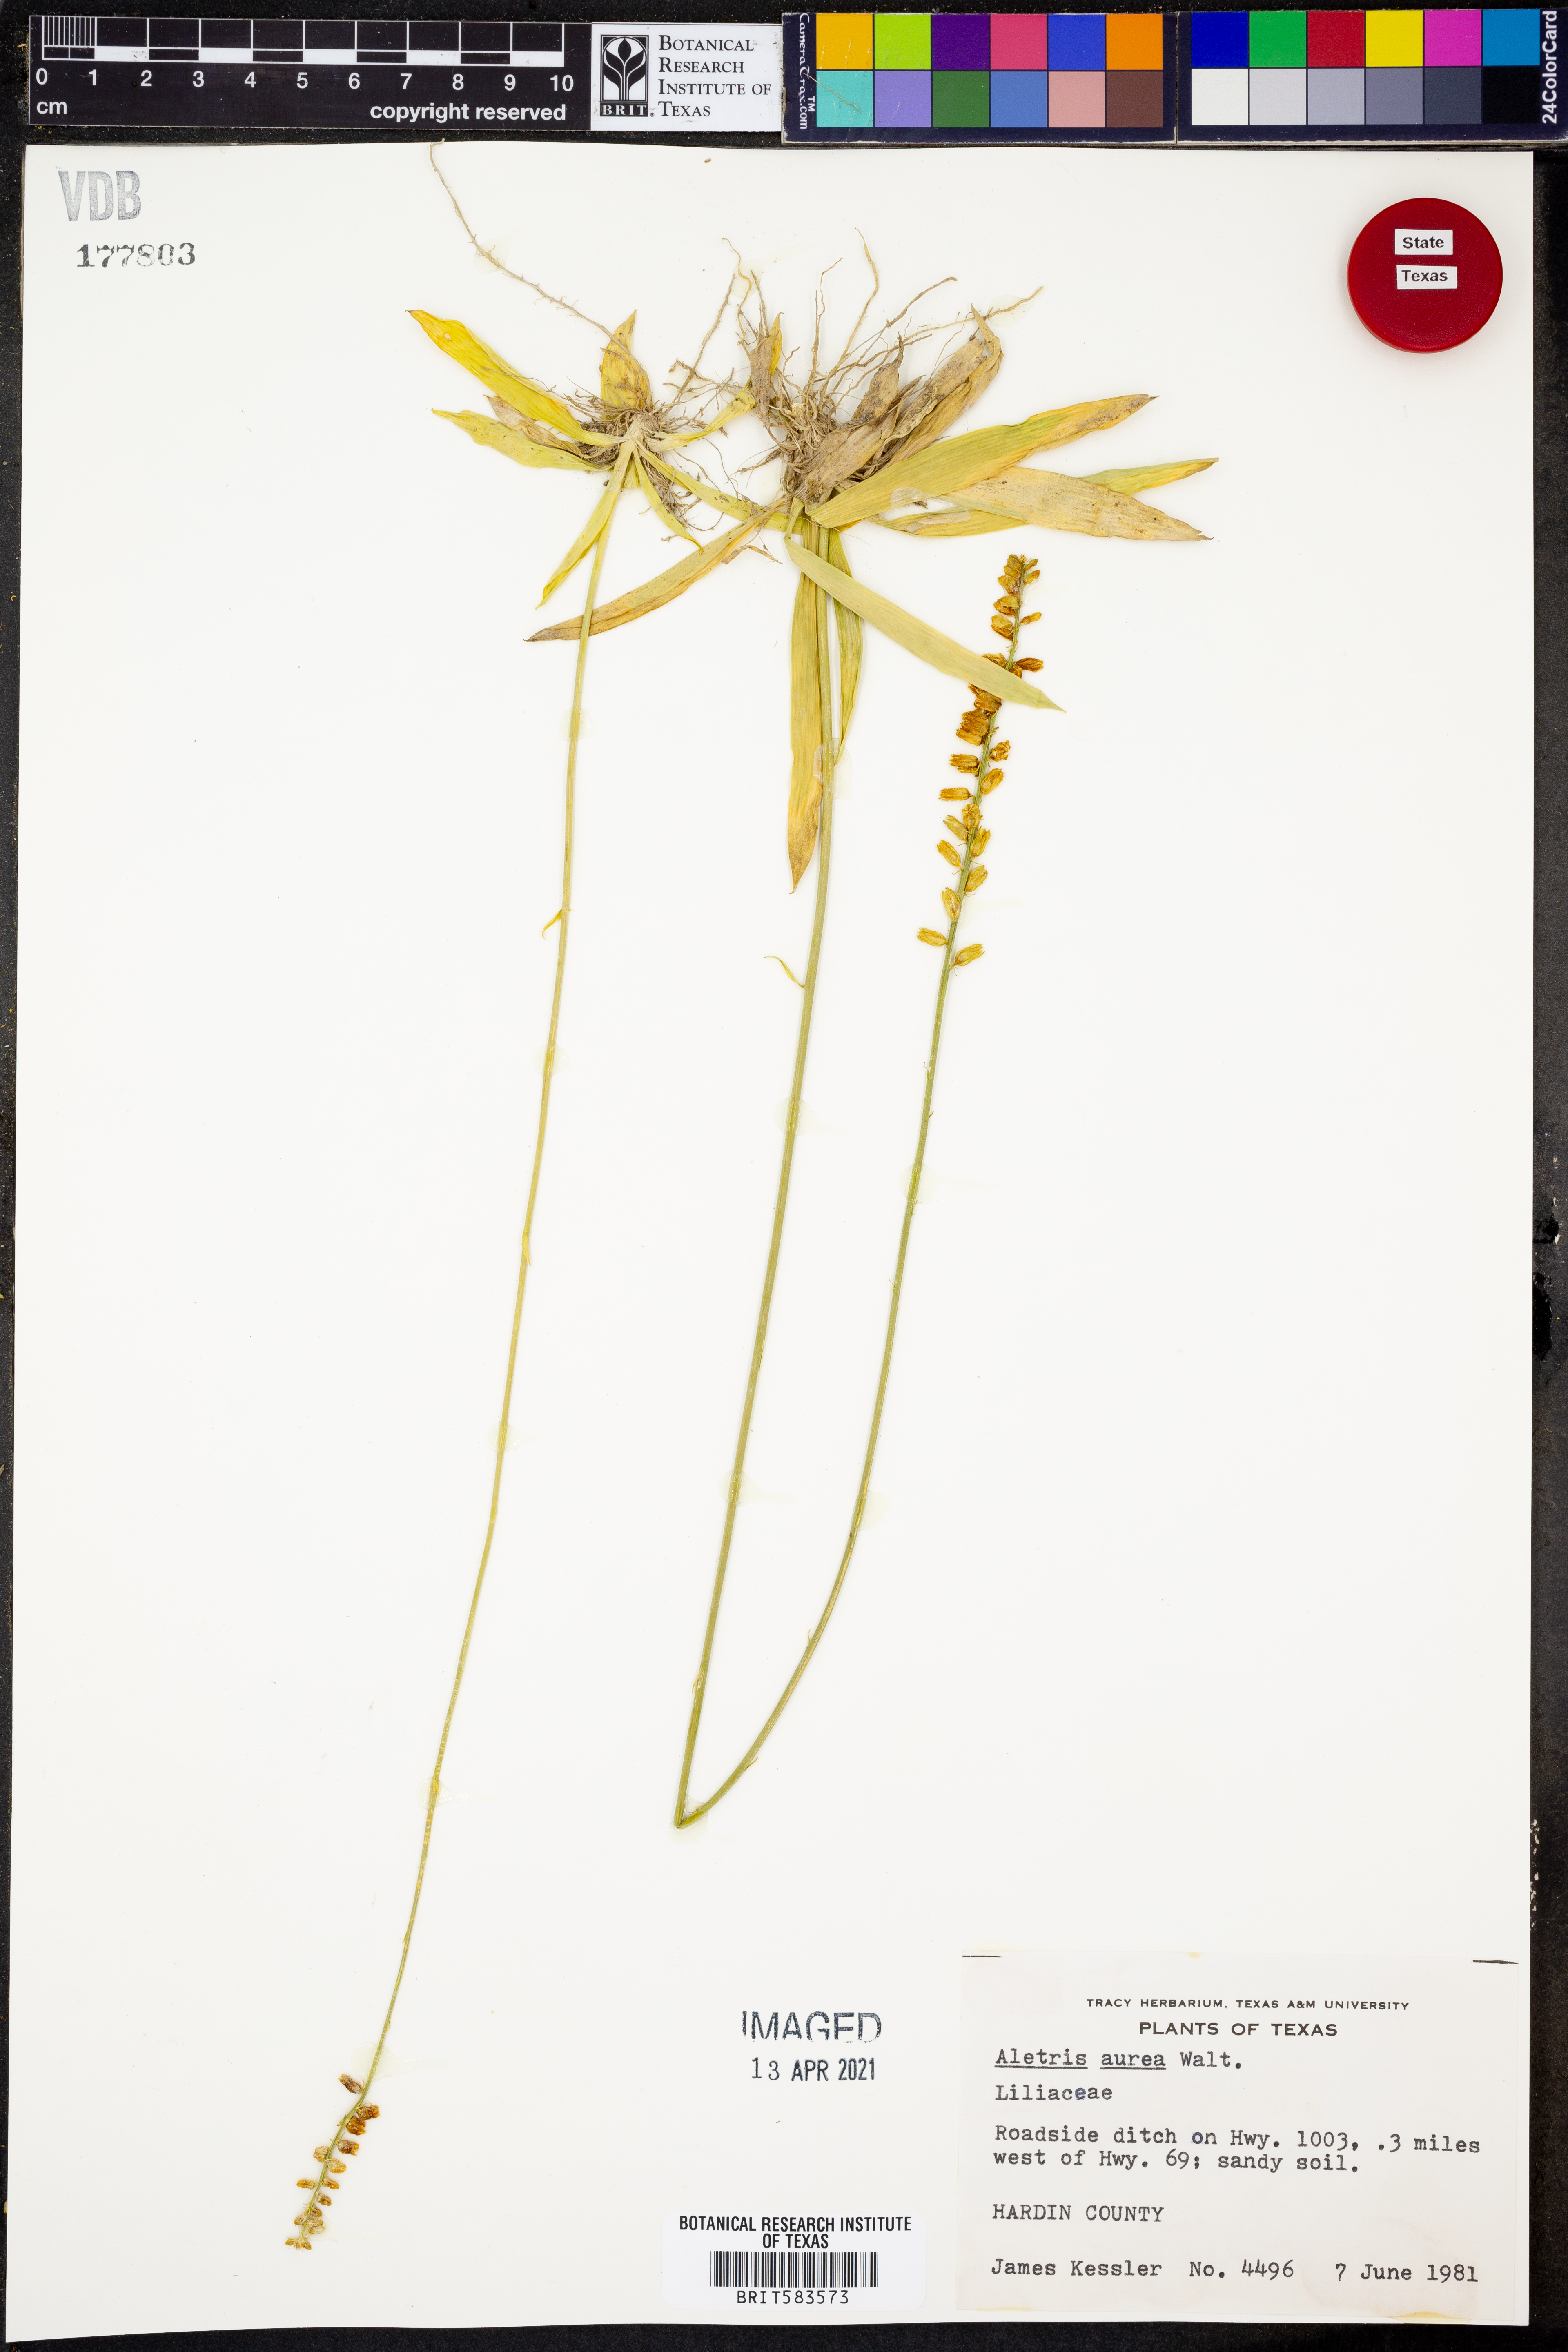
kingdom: Plantae
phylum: Tracheophyta
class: Liliopsida
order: Dioscoreales
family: Nartheciaceae
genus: Aletris
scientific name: Aletris aurea
